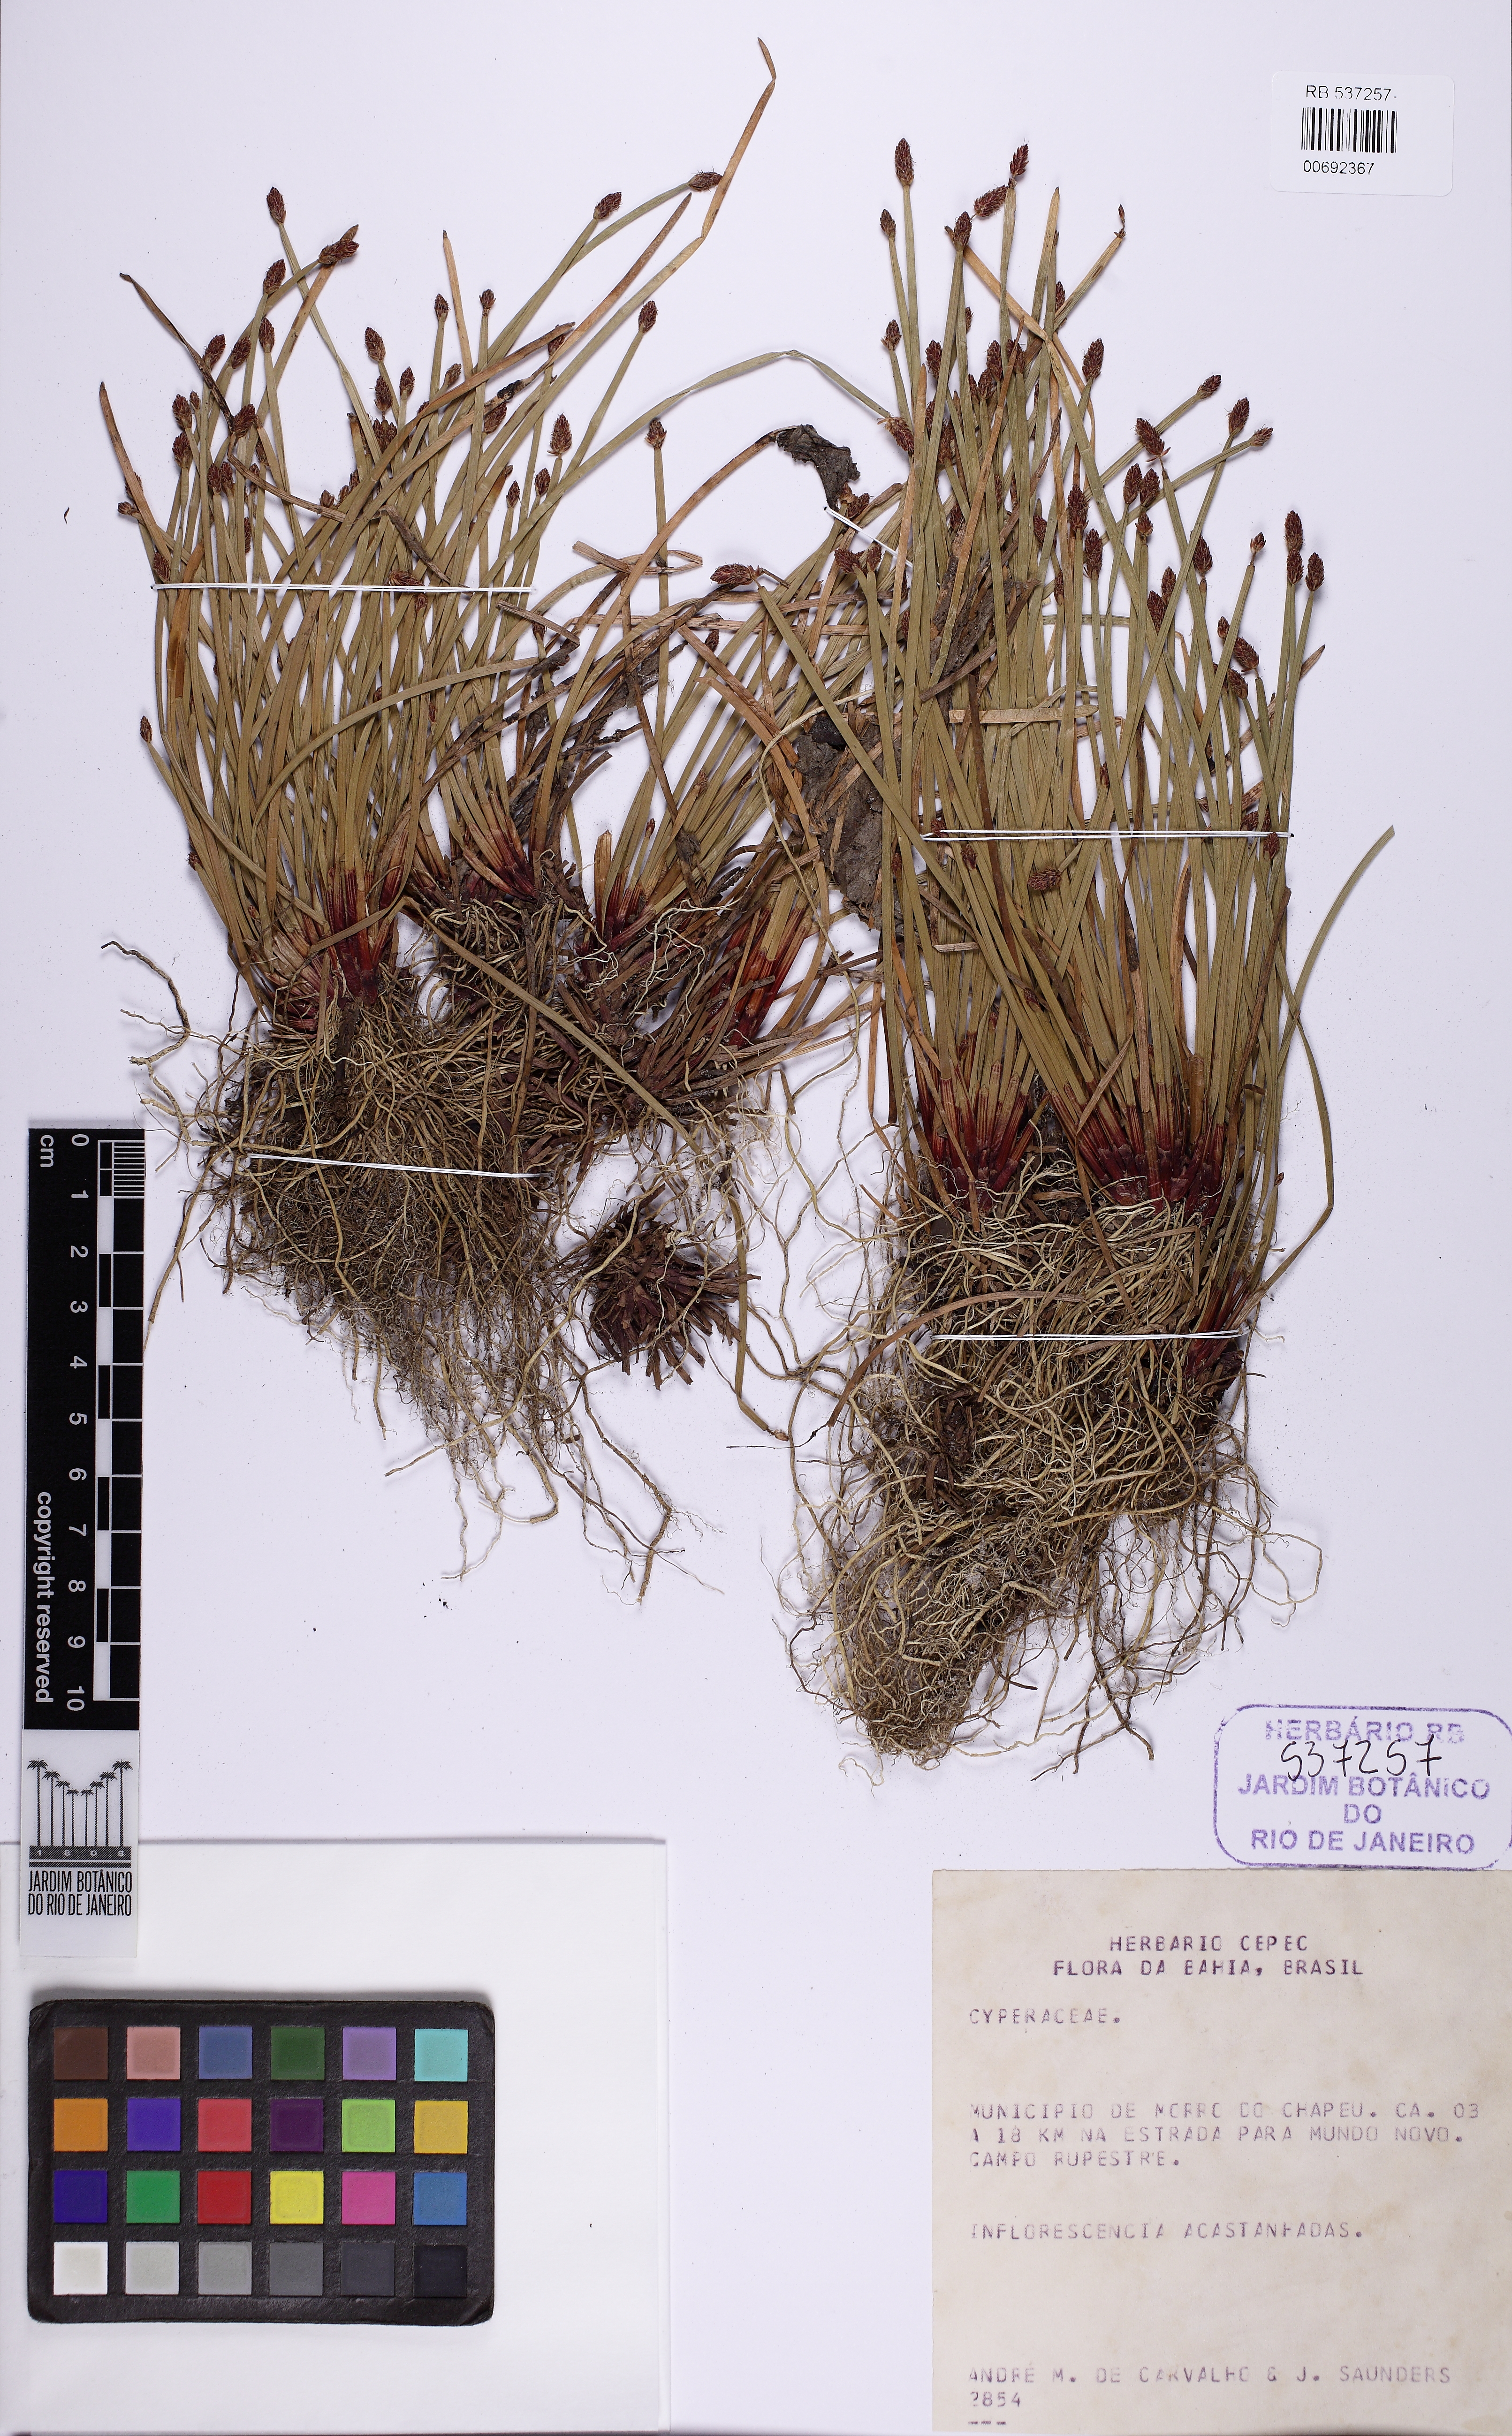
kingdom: Plantae
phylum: Tracheophyta
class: Liliopsida
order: Poales
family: Cyperaceae
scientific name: Cyperaceae
